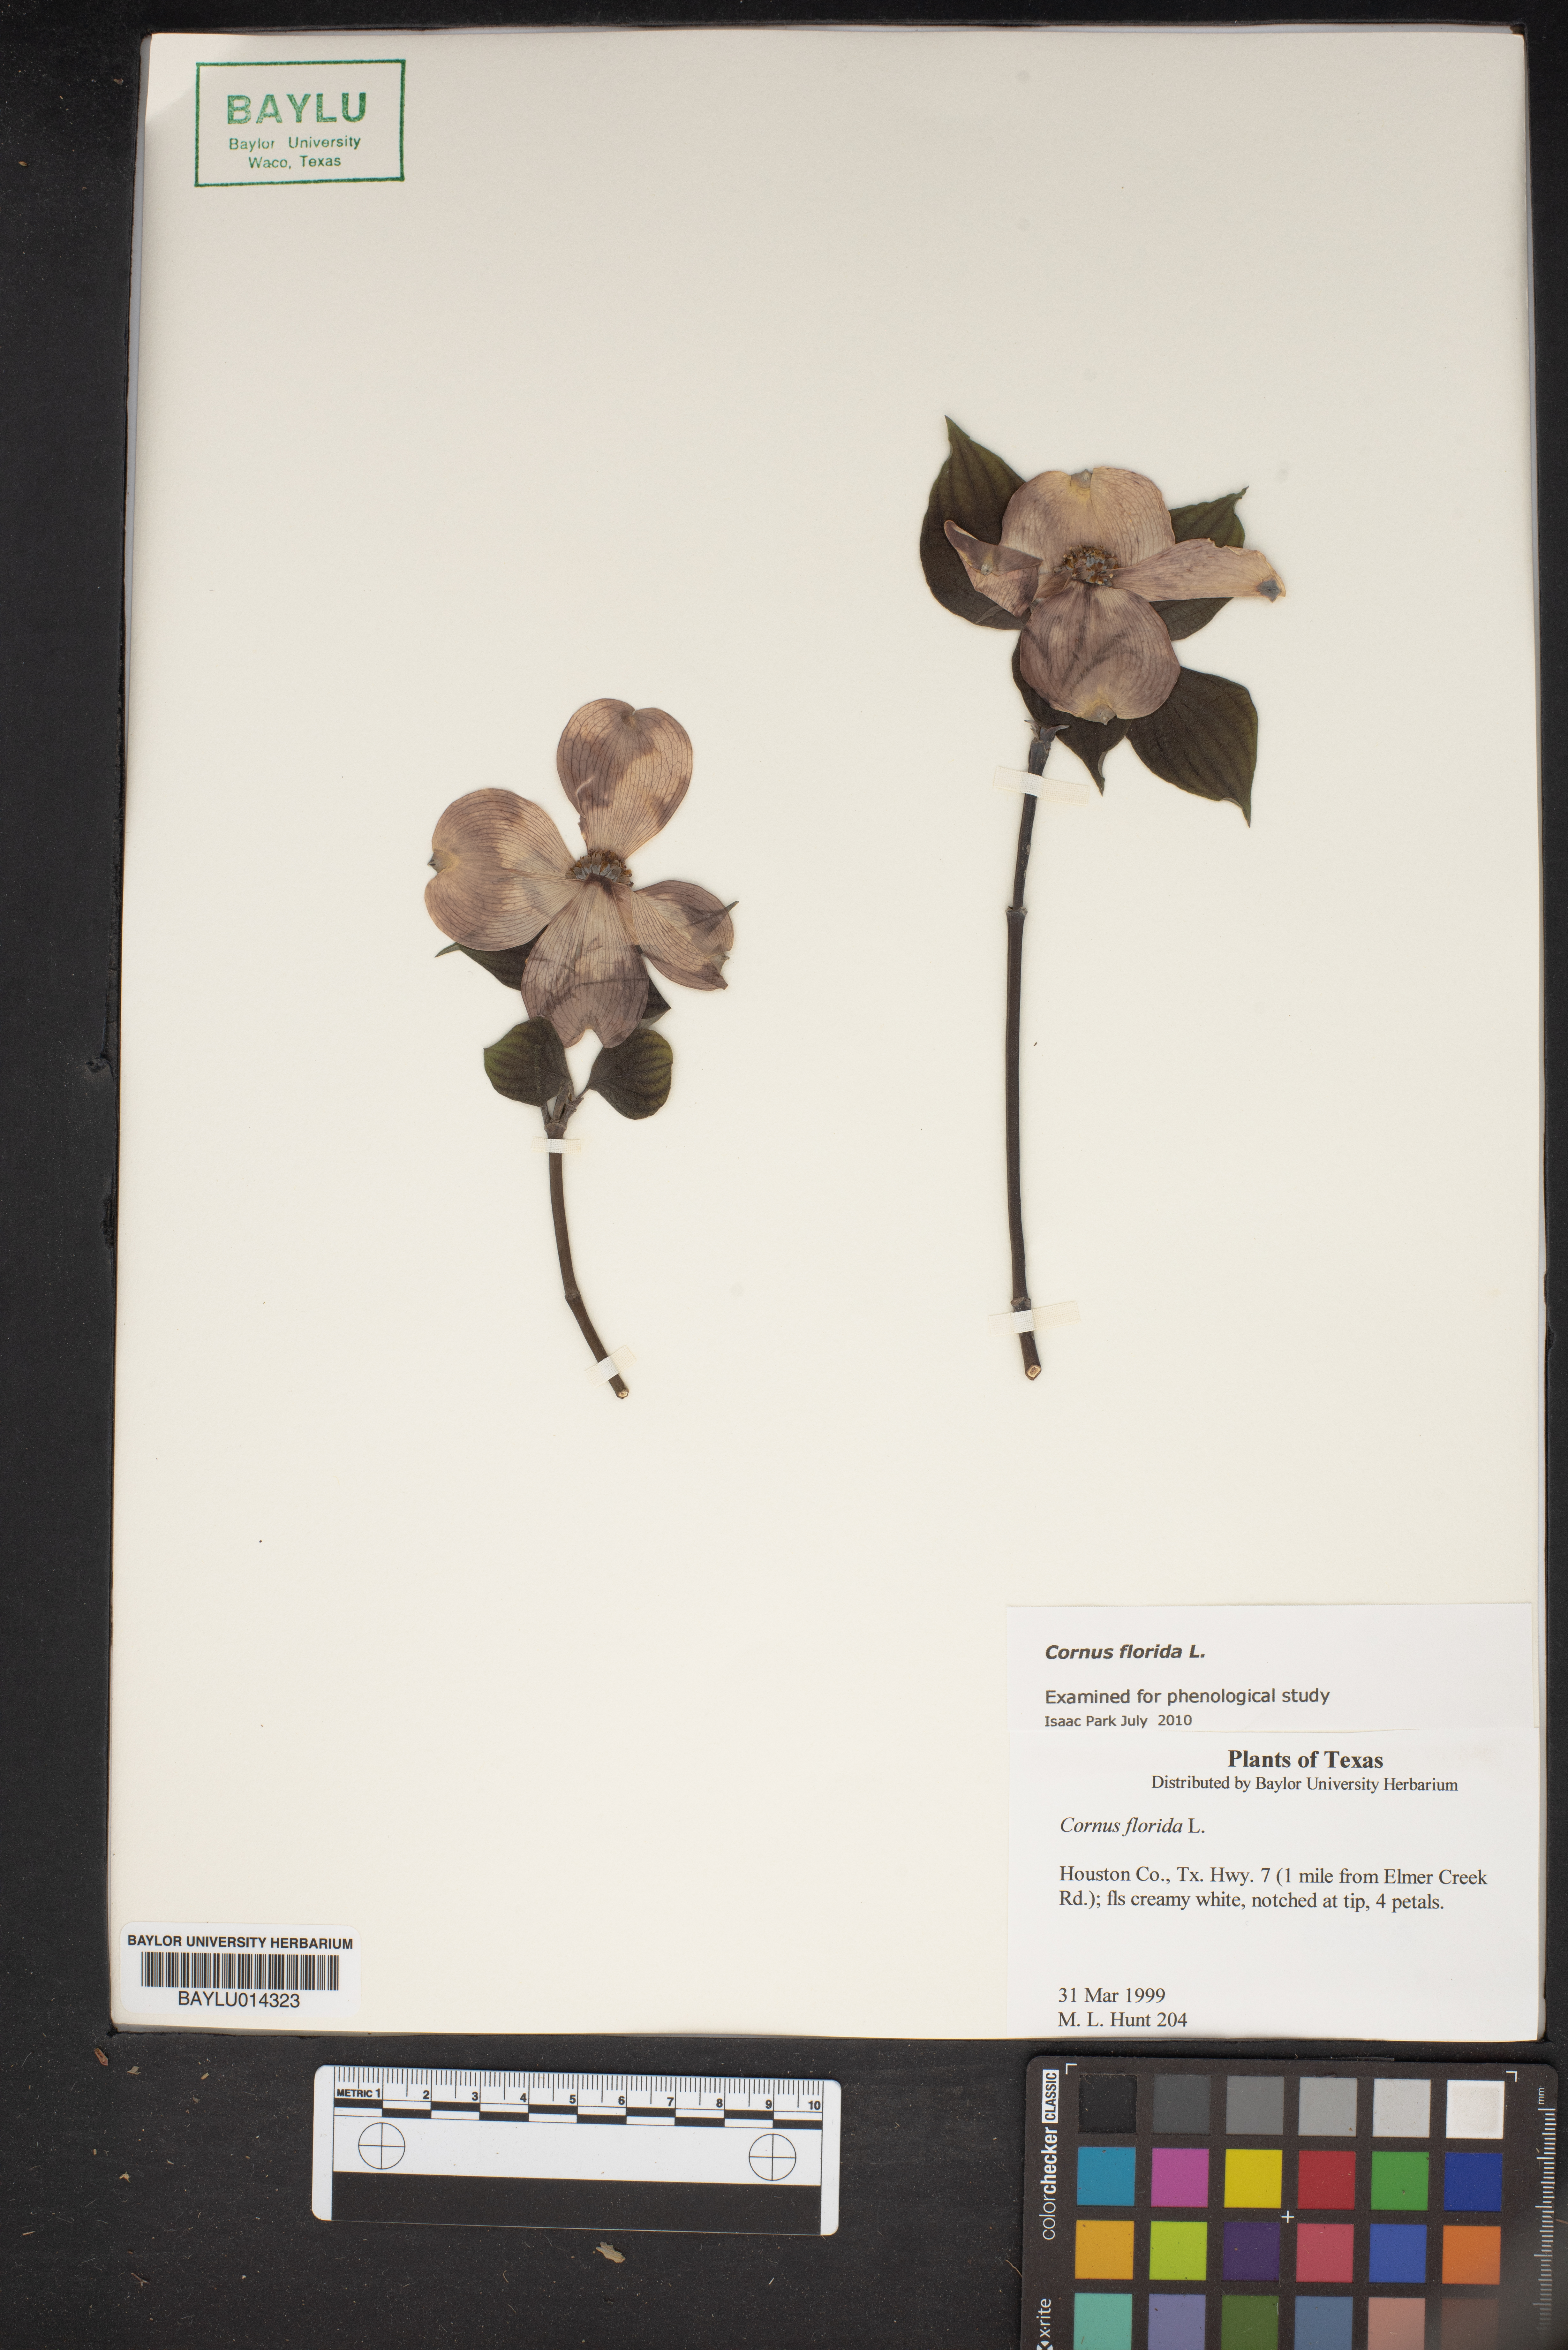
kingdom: Plantae
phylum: Tracheophyta
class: Magnoliopsida
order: Cornales
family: Cornaceae
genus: Cornus
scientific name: Cornus florida
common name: Flowering dogwood
